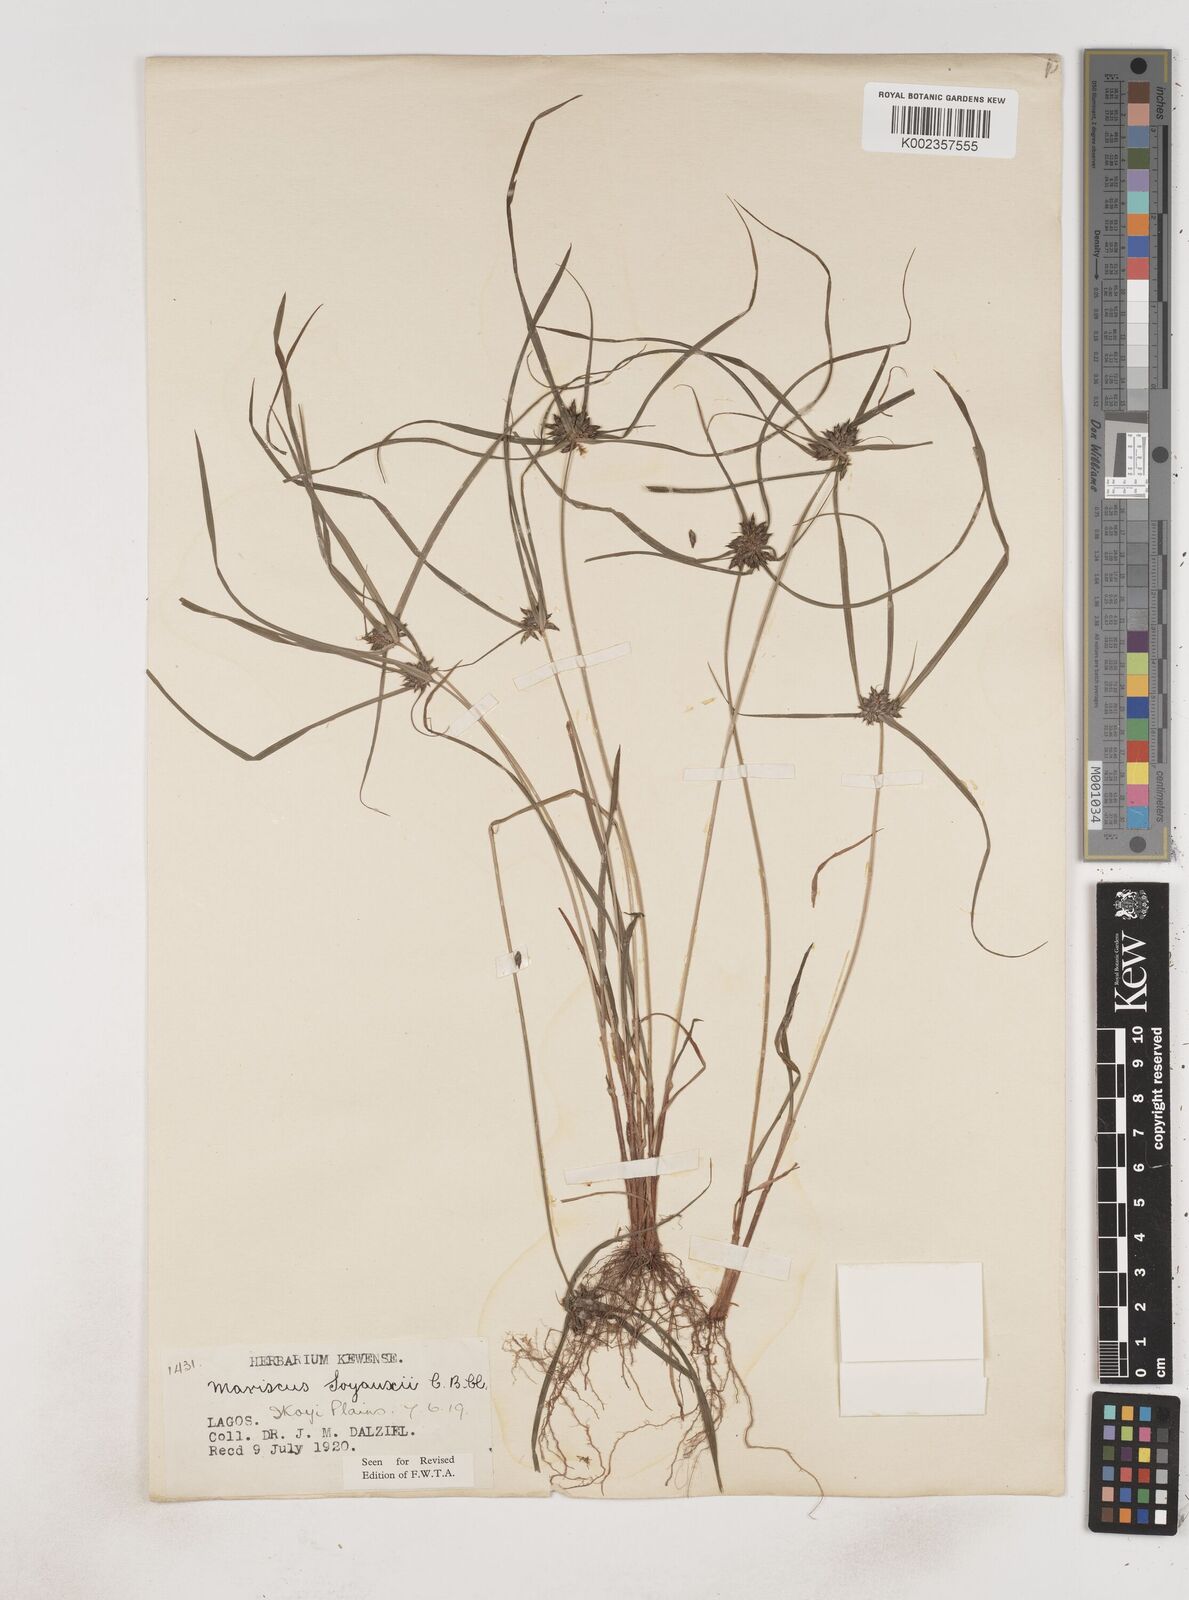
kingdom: Plantae
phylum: Tracheophyta
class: Liliopsida
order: Poales
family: Cyperaceae
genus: Cyperus
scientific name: Cyperus soyauxii
